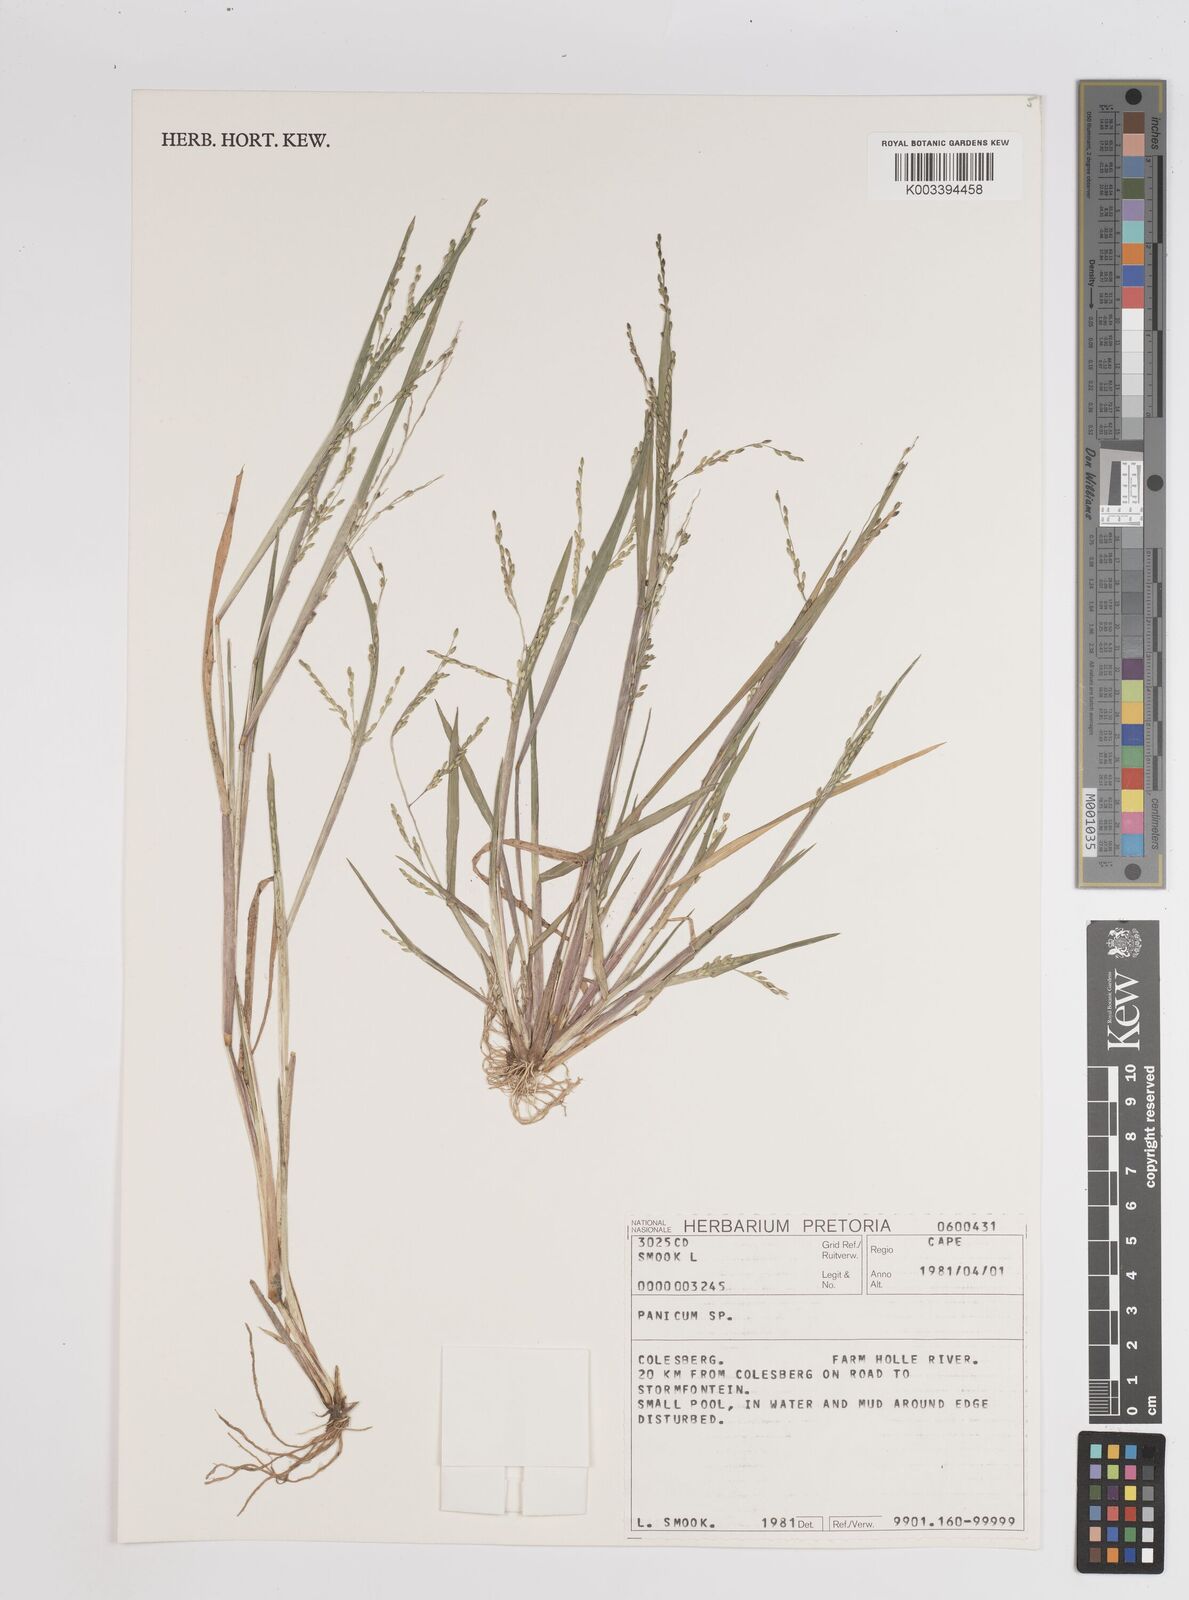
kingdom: Plantae
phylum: Tracheophyta
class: Liliopsida
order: Poales
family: Poaceae
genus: Panicum
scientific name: Panicum
